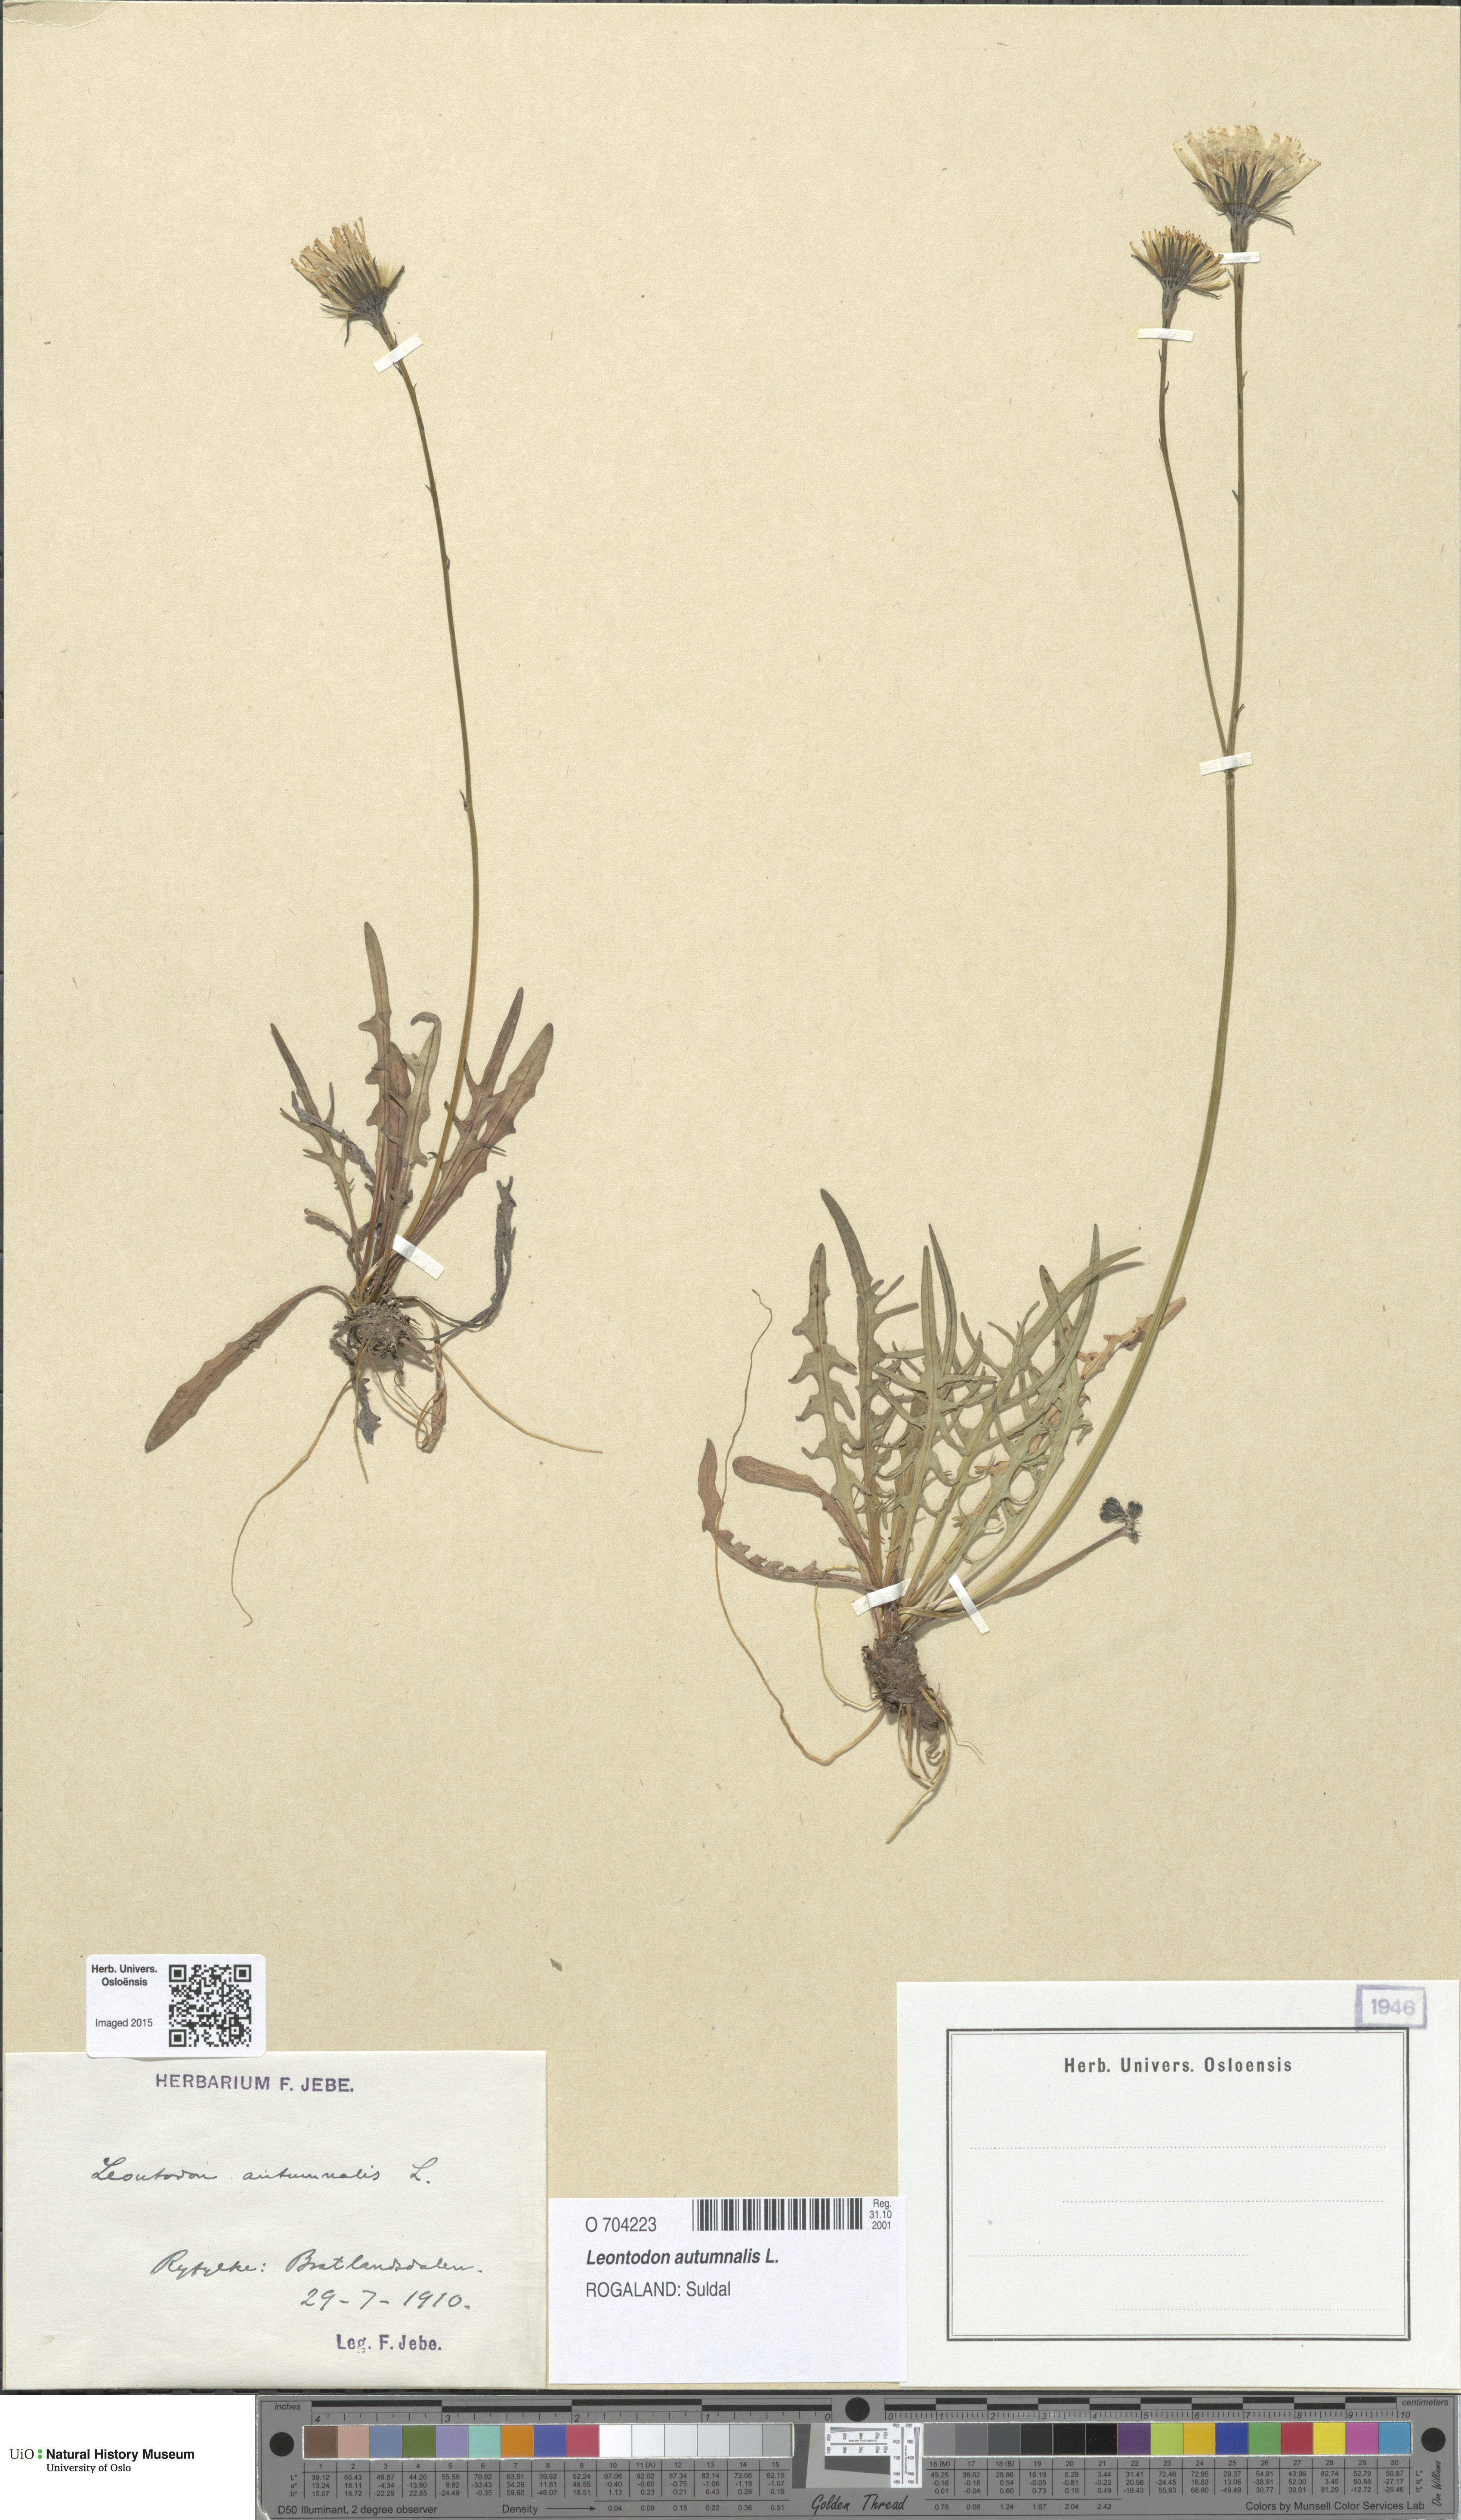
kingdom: Plantae
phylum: Tracheophyta
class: Magnoliopsida
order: Asterales
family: Asteraceae
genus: Scorzoneroides
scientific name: Scorzoneroides autumnalis
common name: Autumn hawkbit
